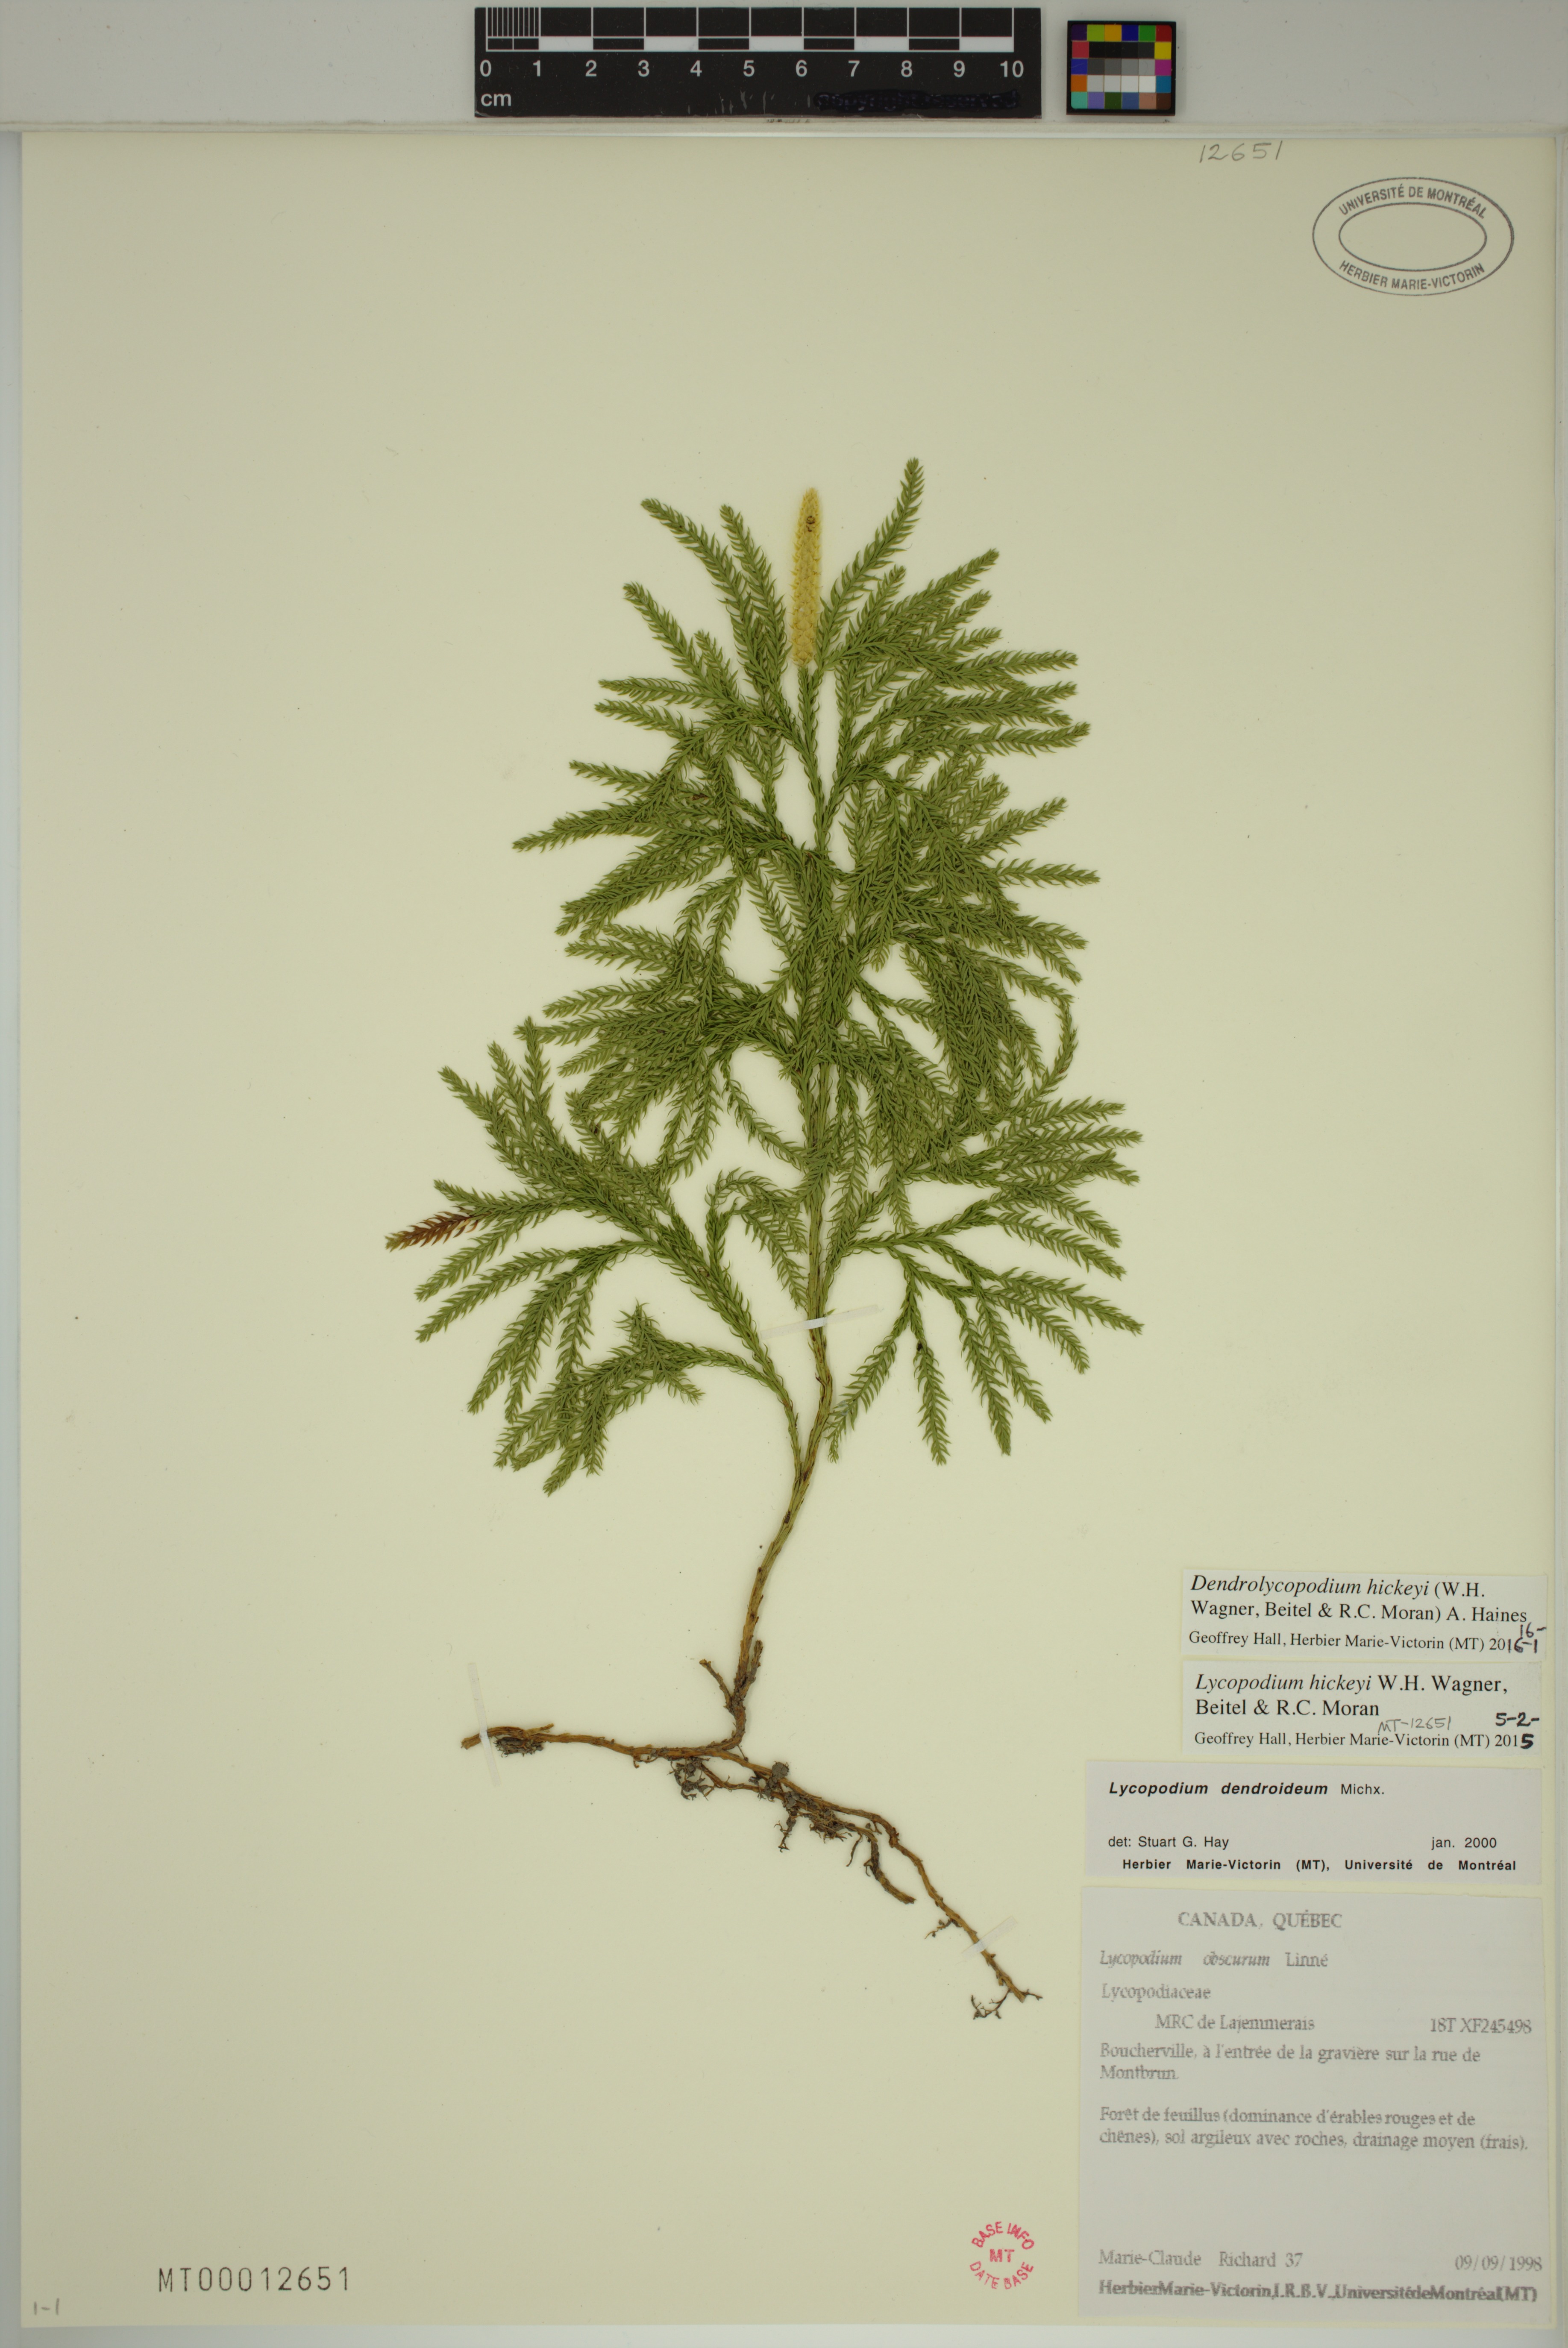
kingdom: Plantae
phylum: Tracheophyta
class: Lycopodiopsida
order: Lycopodiales
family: Lycopodiaceae
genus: Dendrolycopodium
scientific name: Dendrolycopodium hickeyi
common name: Hickey's clubmoss
